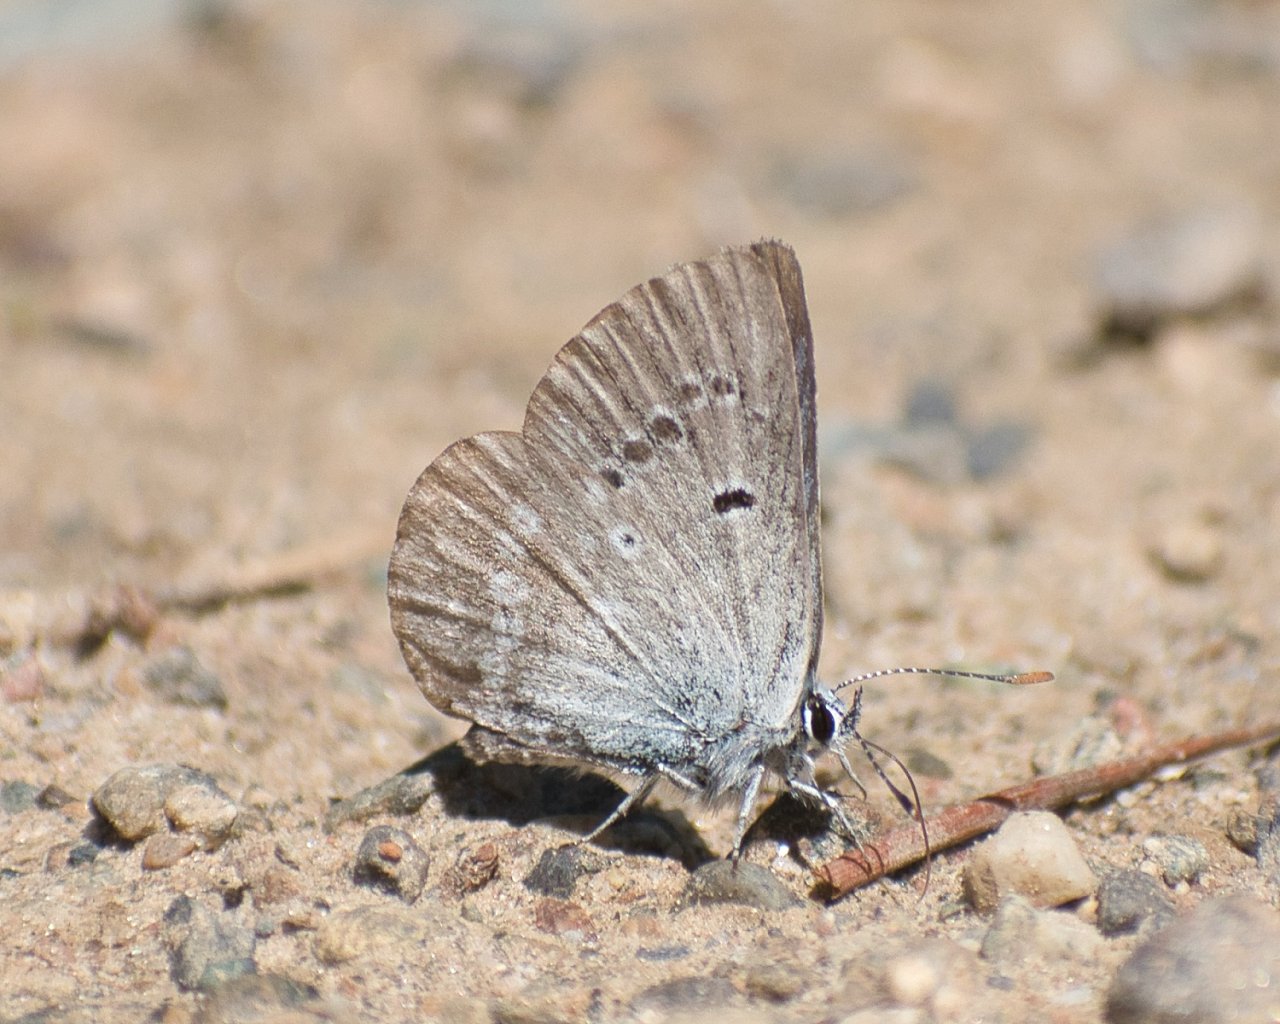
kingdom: Animalia
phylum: Arthropoda
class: Insecta
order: Lepidoptera
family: Lycaenidae
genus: Icaricia
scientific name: Icaricia icarioides
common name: Boisduval's Blue
